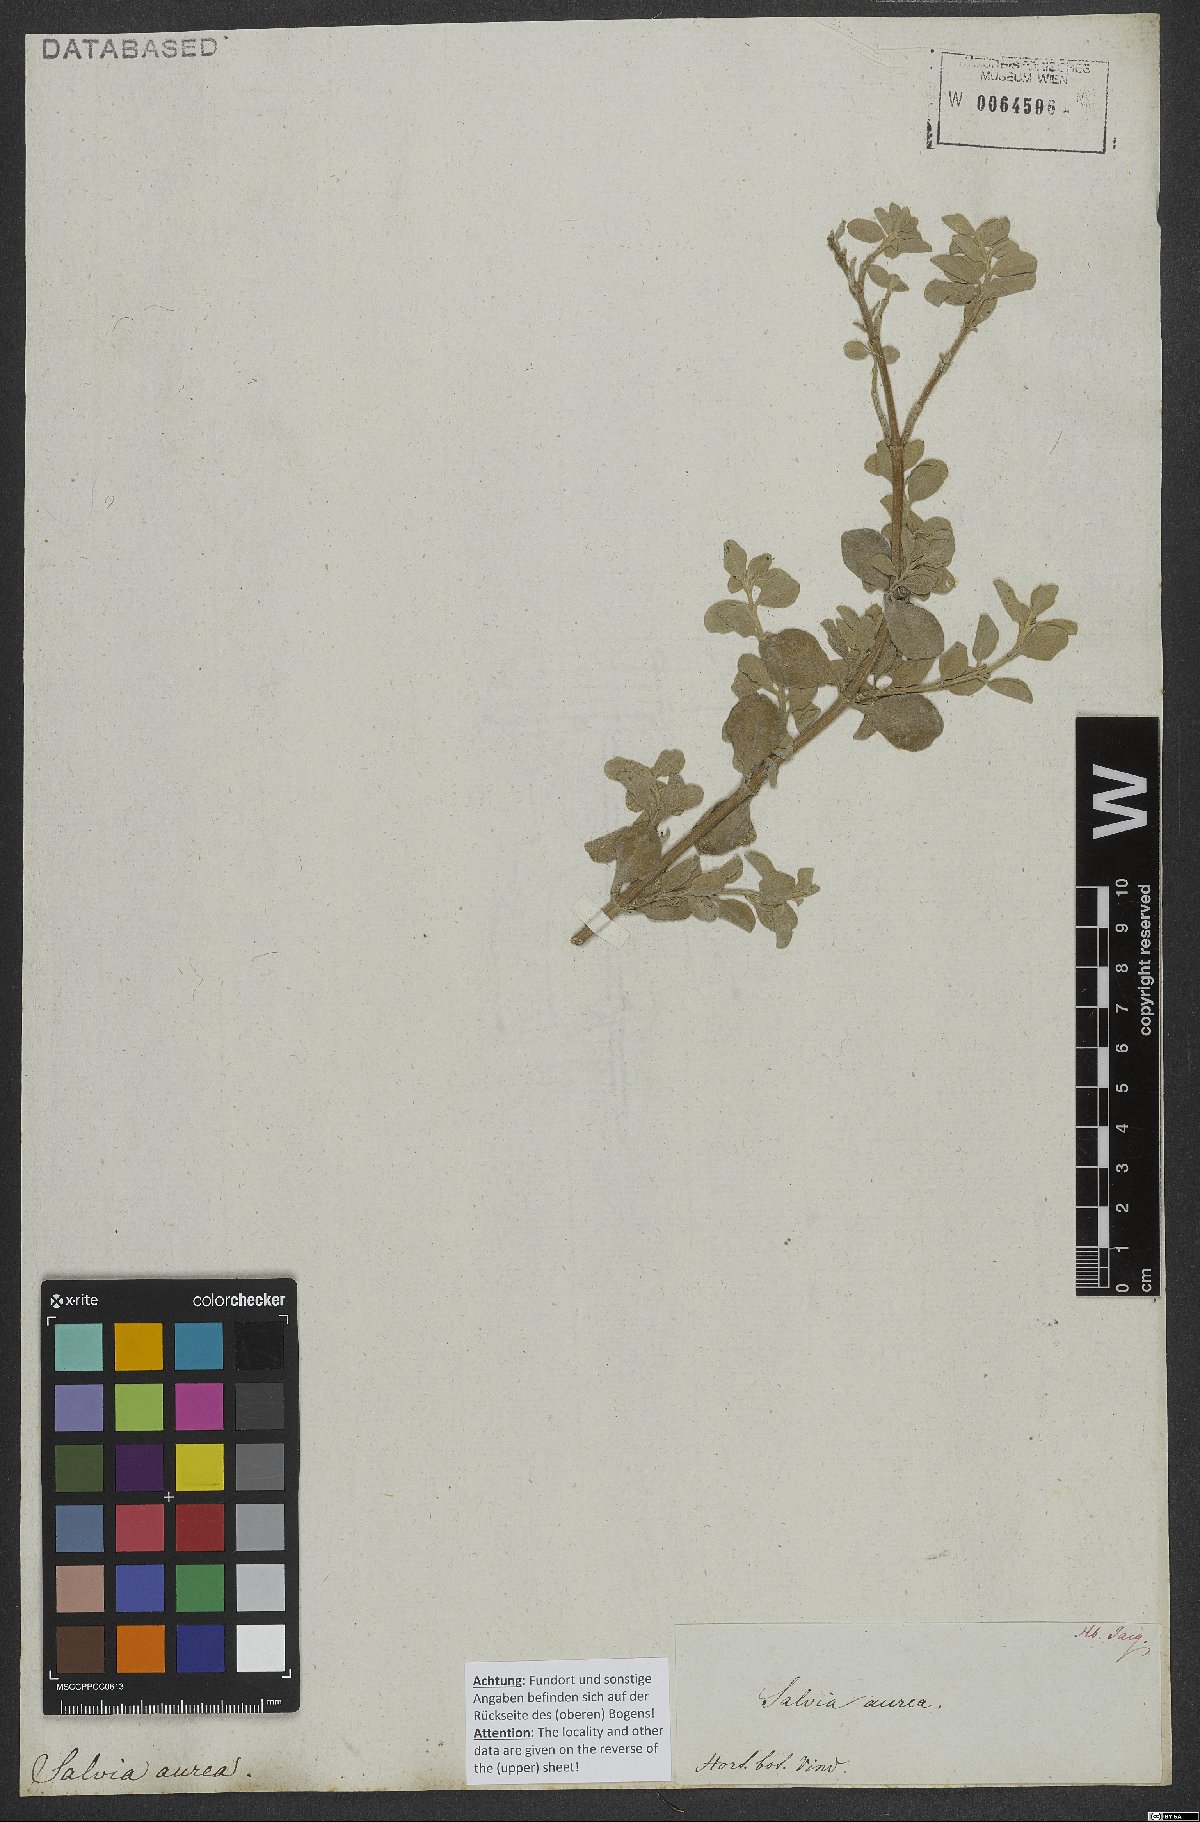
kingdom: Plantae
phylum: Tracheophyta
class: Magnoliopsida
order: Lamiales
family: Lamiaceae
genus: Salvia
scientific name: Salvia aurea
